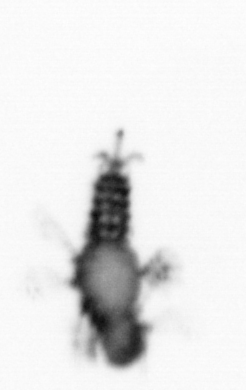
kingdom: Animalia
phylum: Annelida
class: Polychaeta
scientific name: Polychaeta
